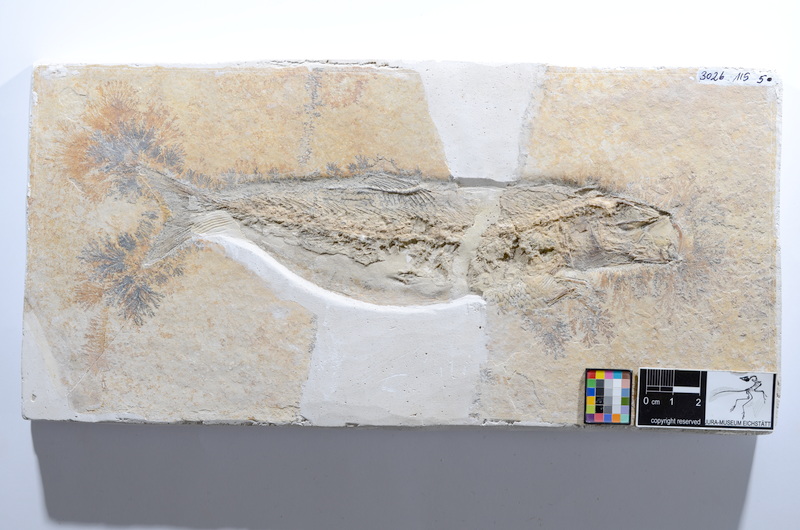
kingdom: Animalia
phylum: Chordata
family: Ascalaboidae
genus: Tharsis
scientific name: Tharsis dubius
